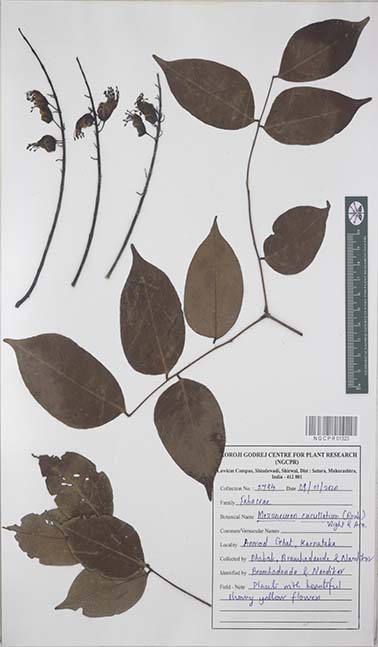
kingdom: Plantae
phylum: Tracheophyta
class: Magnoliopsida
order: Fabales
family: Fabaceae
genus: Mezoneuron
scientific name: Mezoneuron cucullatum
